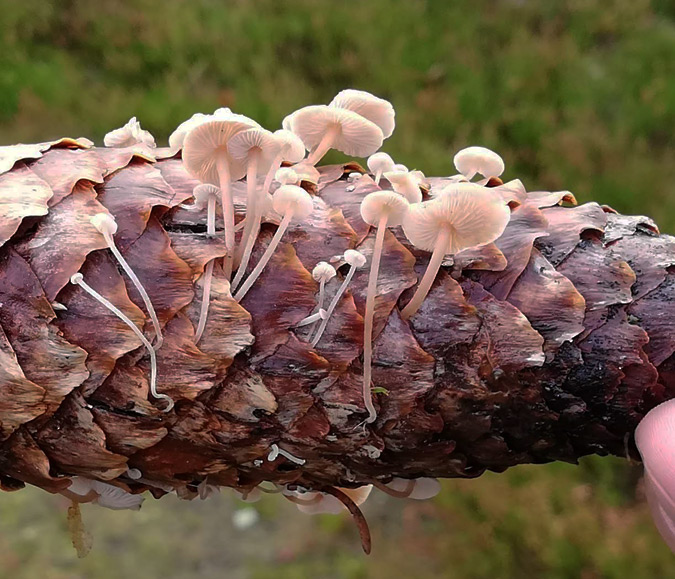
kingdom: Fungi
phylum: Basidiomycota
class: Agaricomycetes
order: Agaricales
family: Marasmiaceae
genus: Baeospora
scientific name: Baeospora myosura
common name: koglebruskhat
